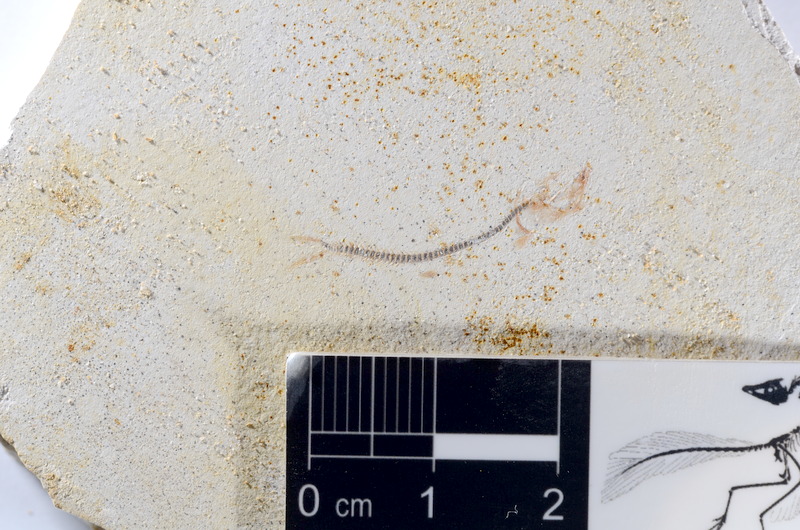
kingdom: Animalia
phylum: Chordata
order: Salmoniformes
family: Orthogonikleithridae
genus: Orthogonikleithrus
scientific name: Orthogonikleithrus hoelli
